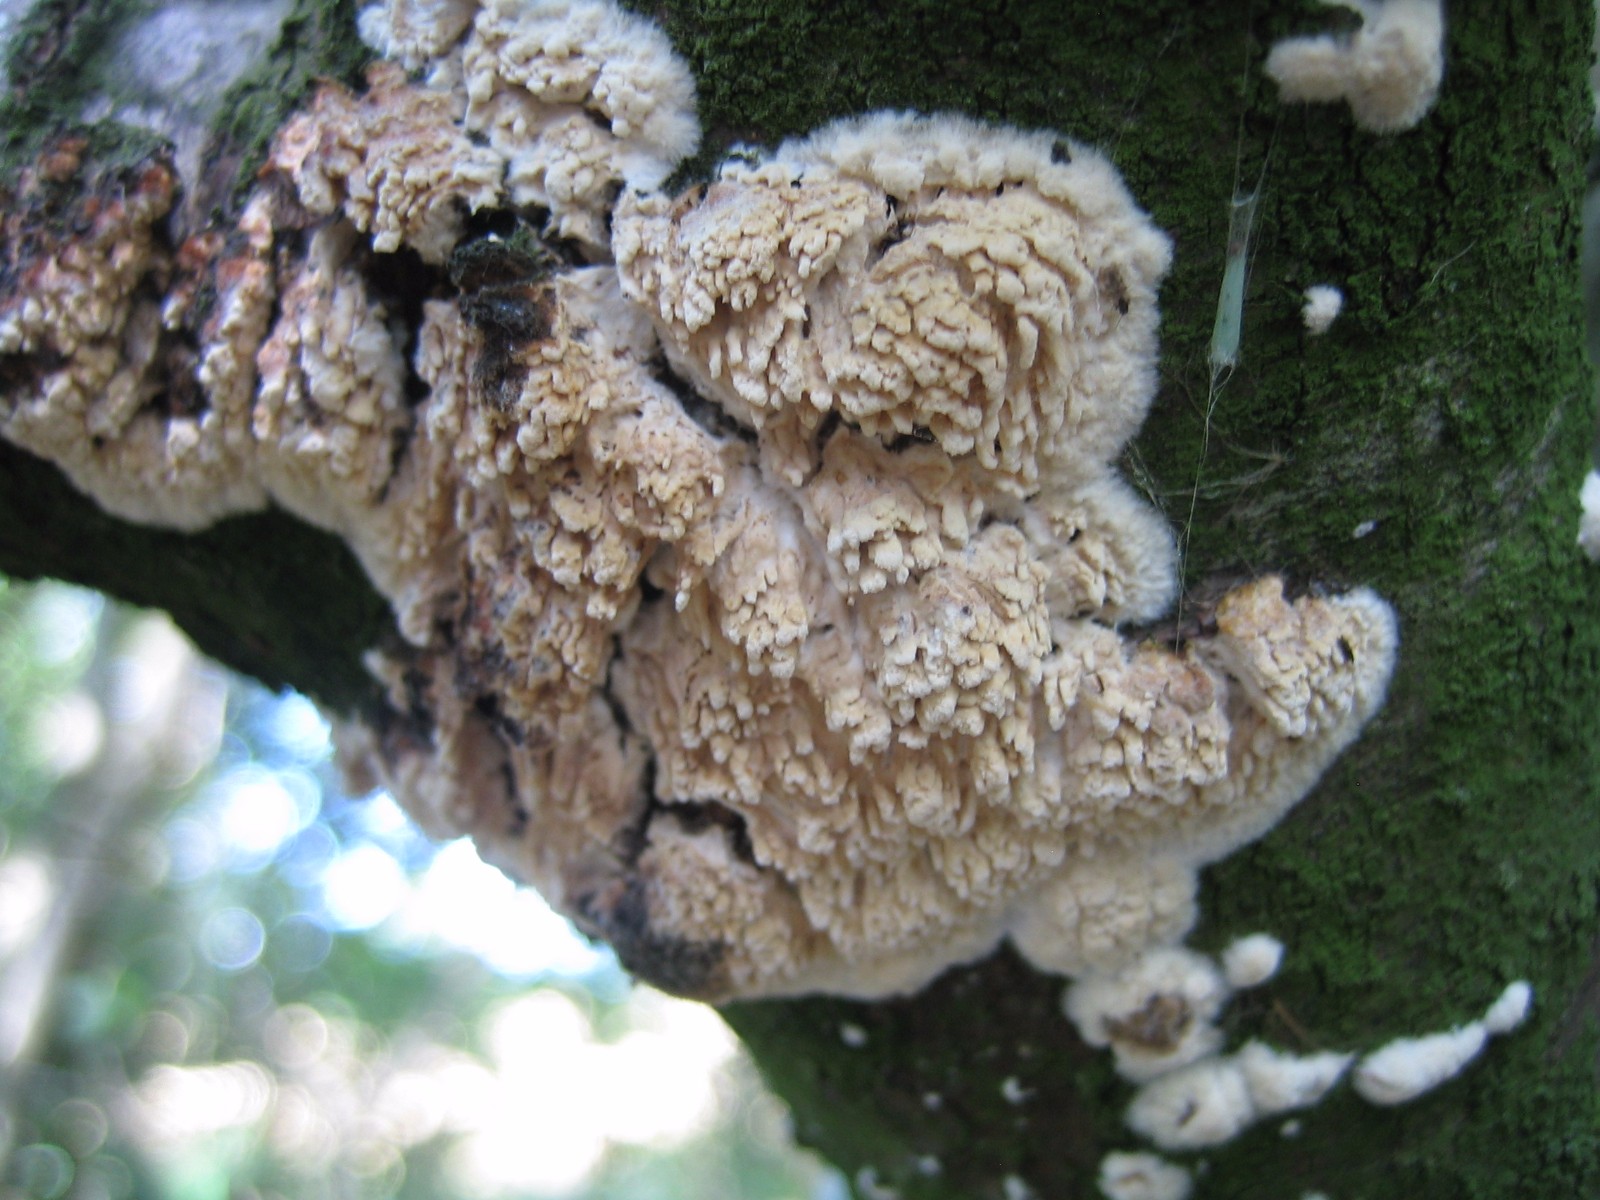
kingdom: Fungi
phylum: Basidiomycota
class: Agaricomycetes
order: Hymenochaetales
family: Schizoporaceae
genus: Xylodon
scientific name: Xylodon radula
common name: grovtandet kalkskind
